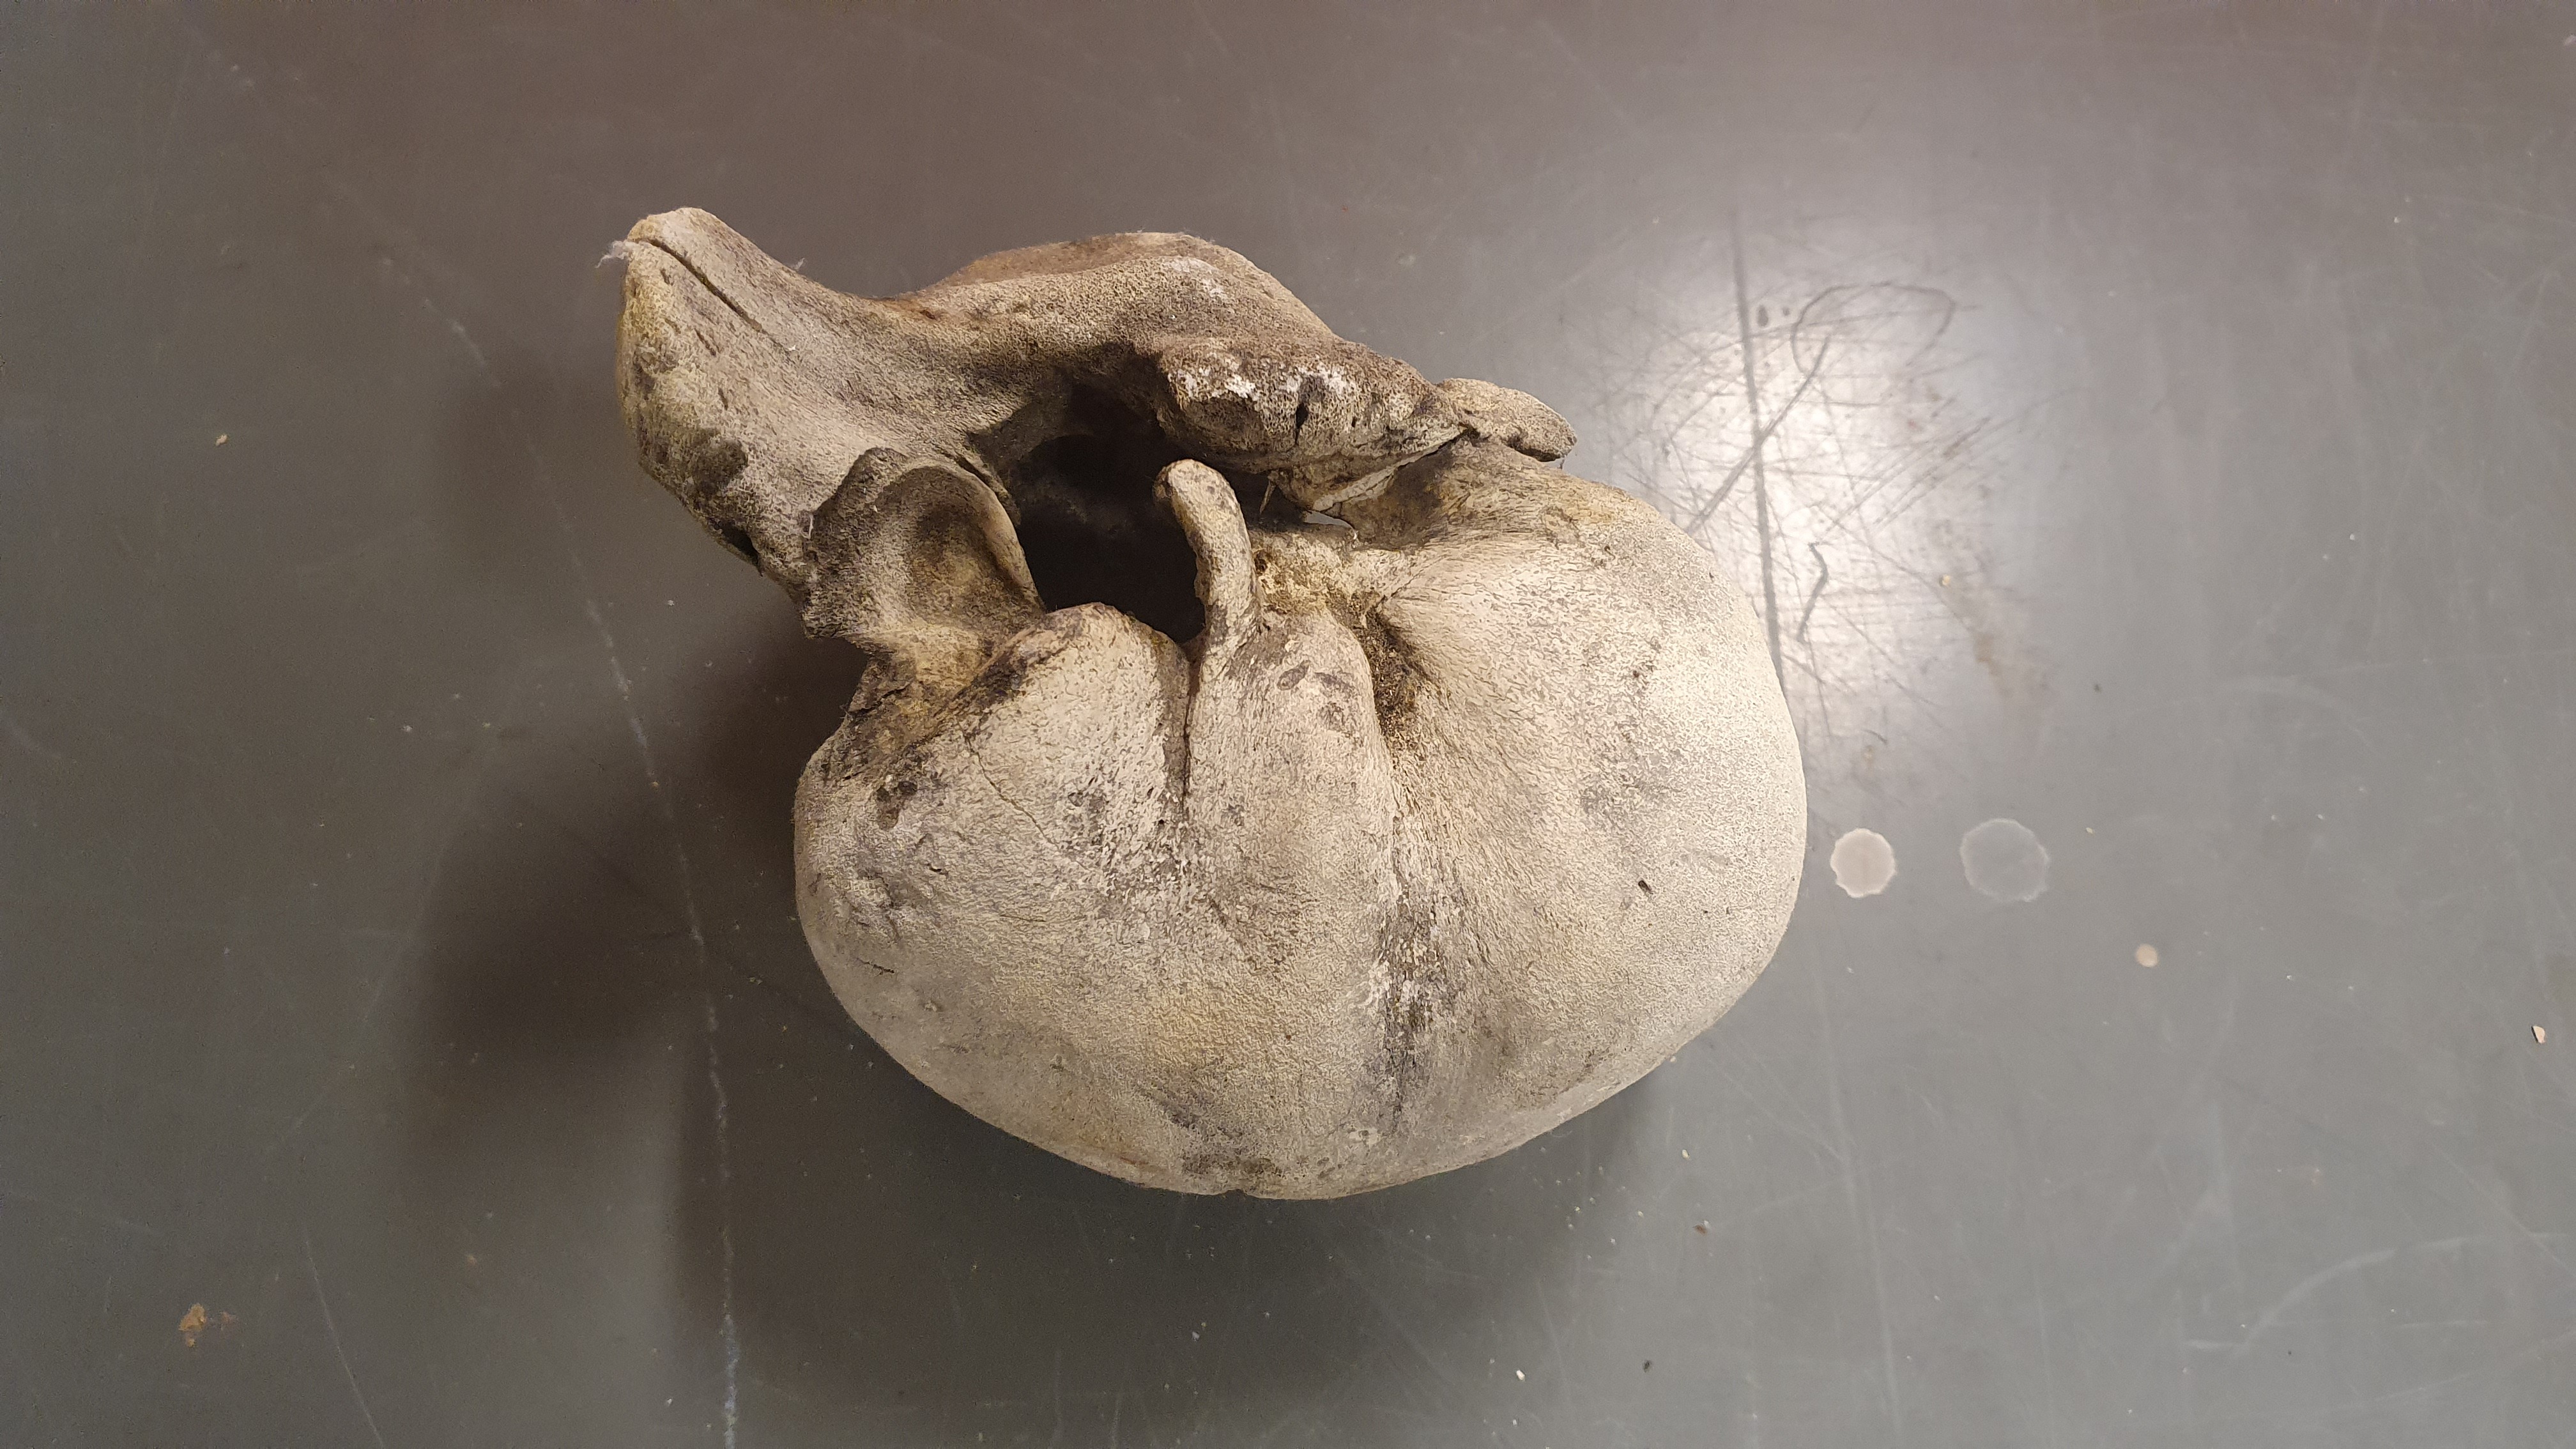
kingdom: Animalia
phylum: Chordata
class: Mammalia
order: Cetacea
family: Balaenopteridae
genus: Balaenoptera
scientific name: Balaenoptera musculus
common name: Blue whale
